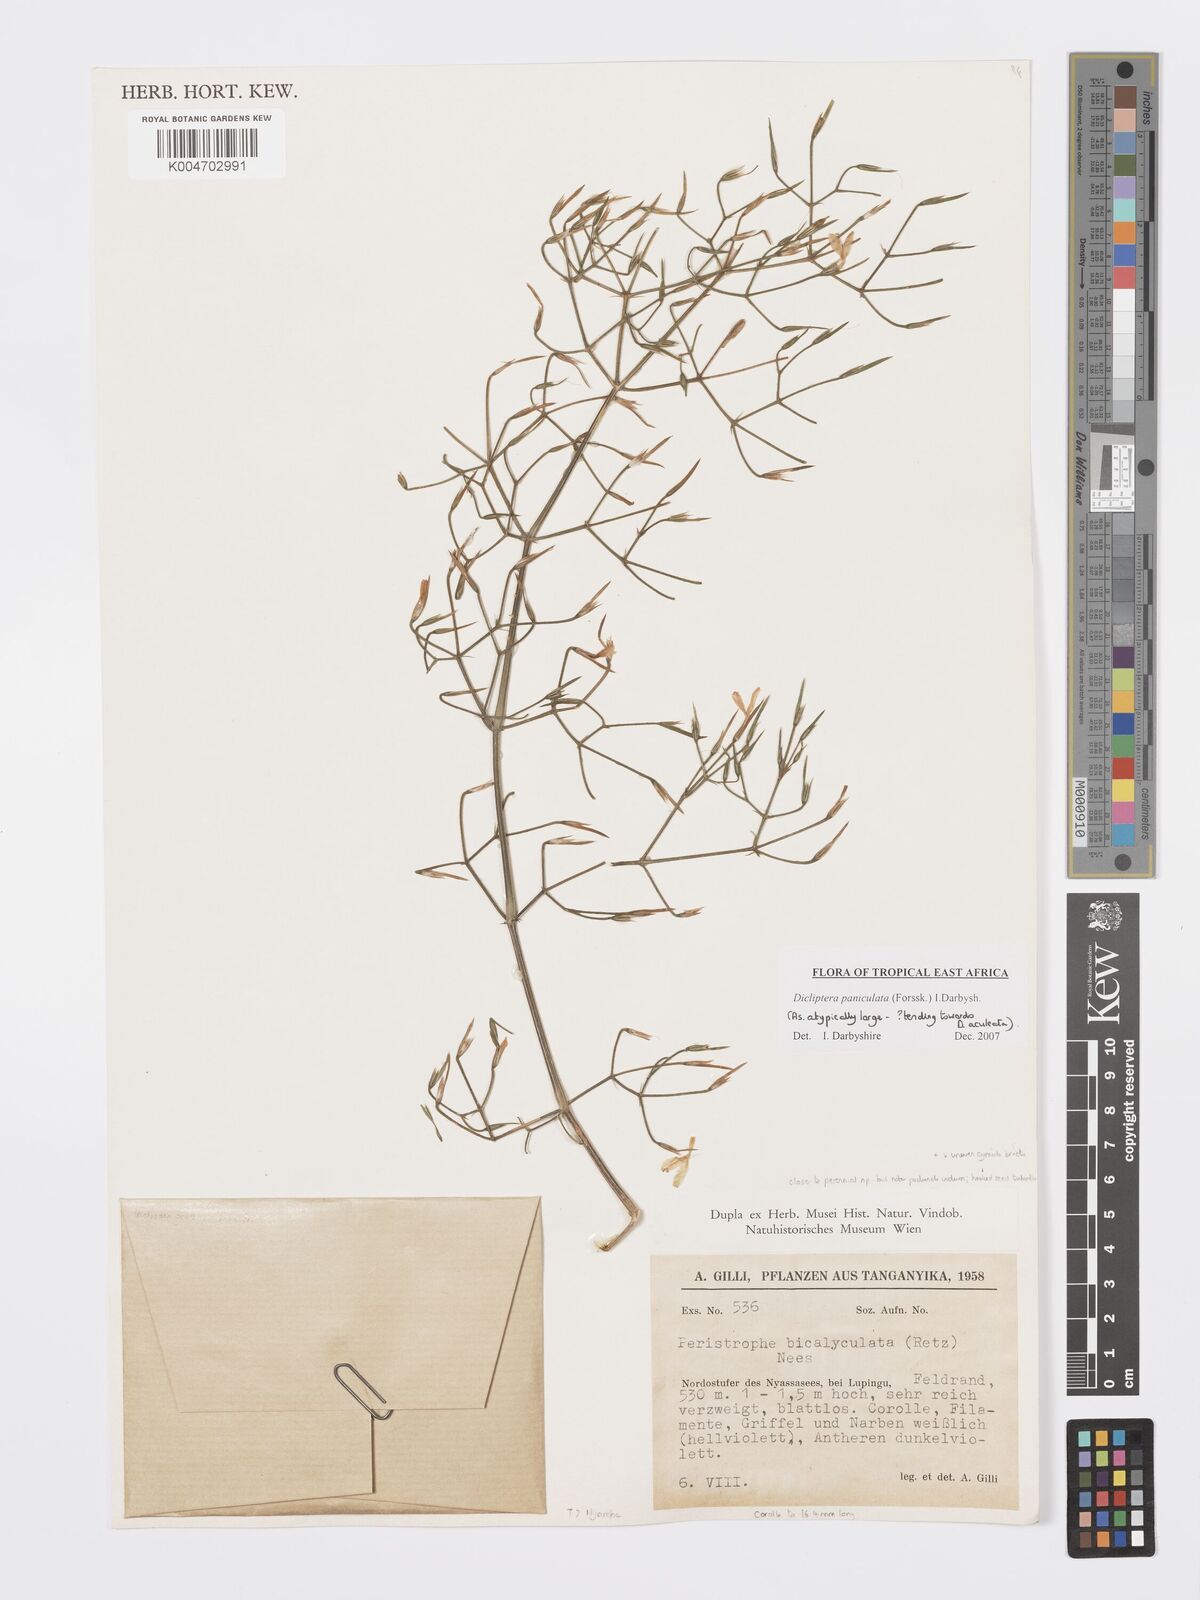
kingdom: Plantae
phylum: Tracheophyta
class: Magnoliopsida
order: Lamiales
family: Acanthaceae
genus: Dicliptera
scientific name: Dicliptera paniculata
